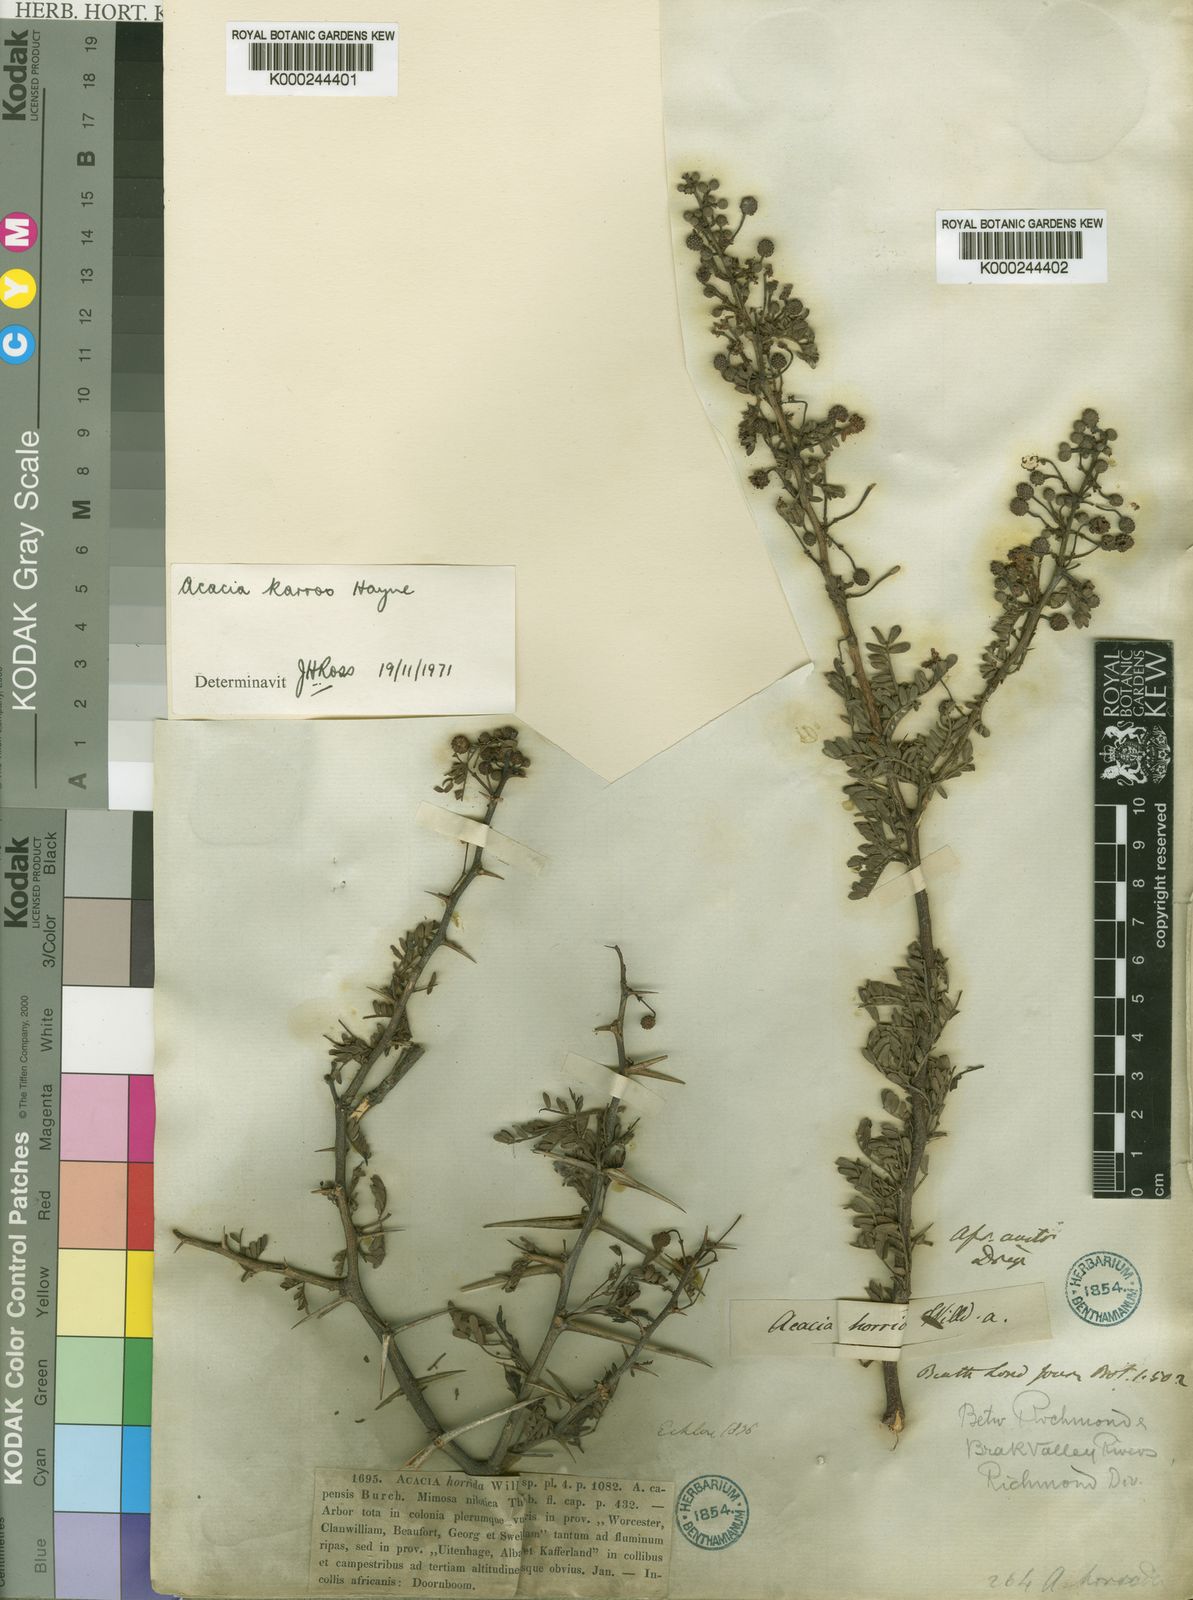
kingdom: Plantae
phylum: Tracheophyta
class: Magnoliopsida
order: Fabales
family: Fabaceae
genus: Vachellia
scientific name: Vachellia karroo
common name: Sweet thorn
